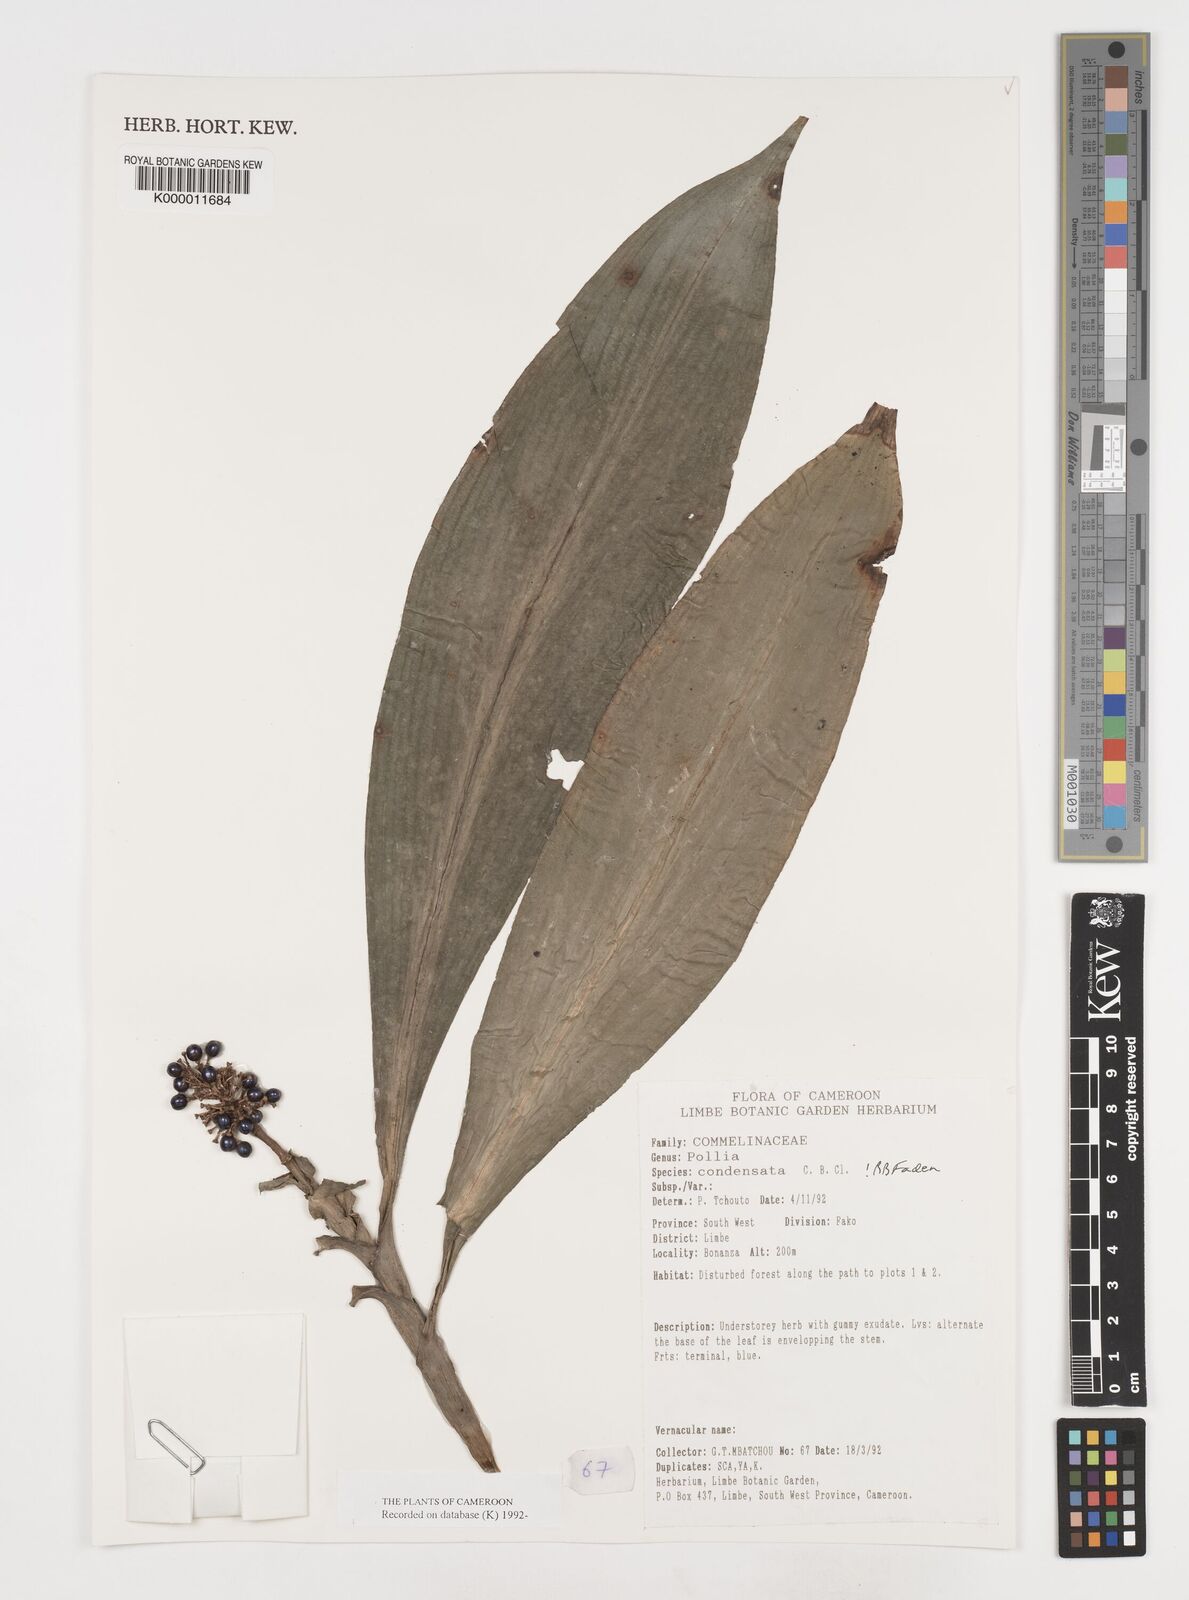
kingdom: Plantae
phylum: Tracheophyta
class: Liliopsida
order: Commelinales
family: Commelinaceae
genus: Pollia
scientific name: Pollia condensata
